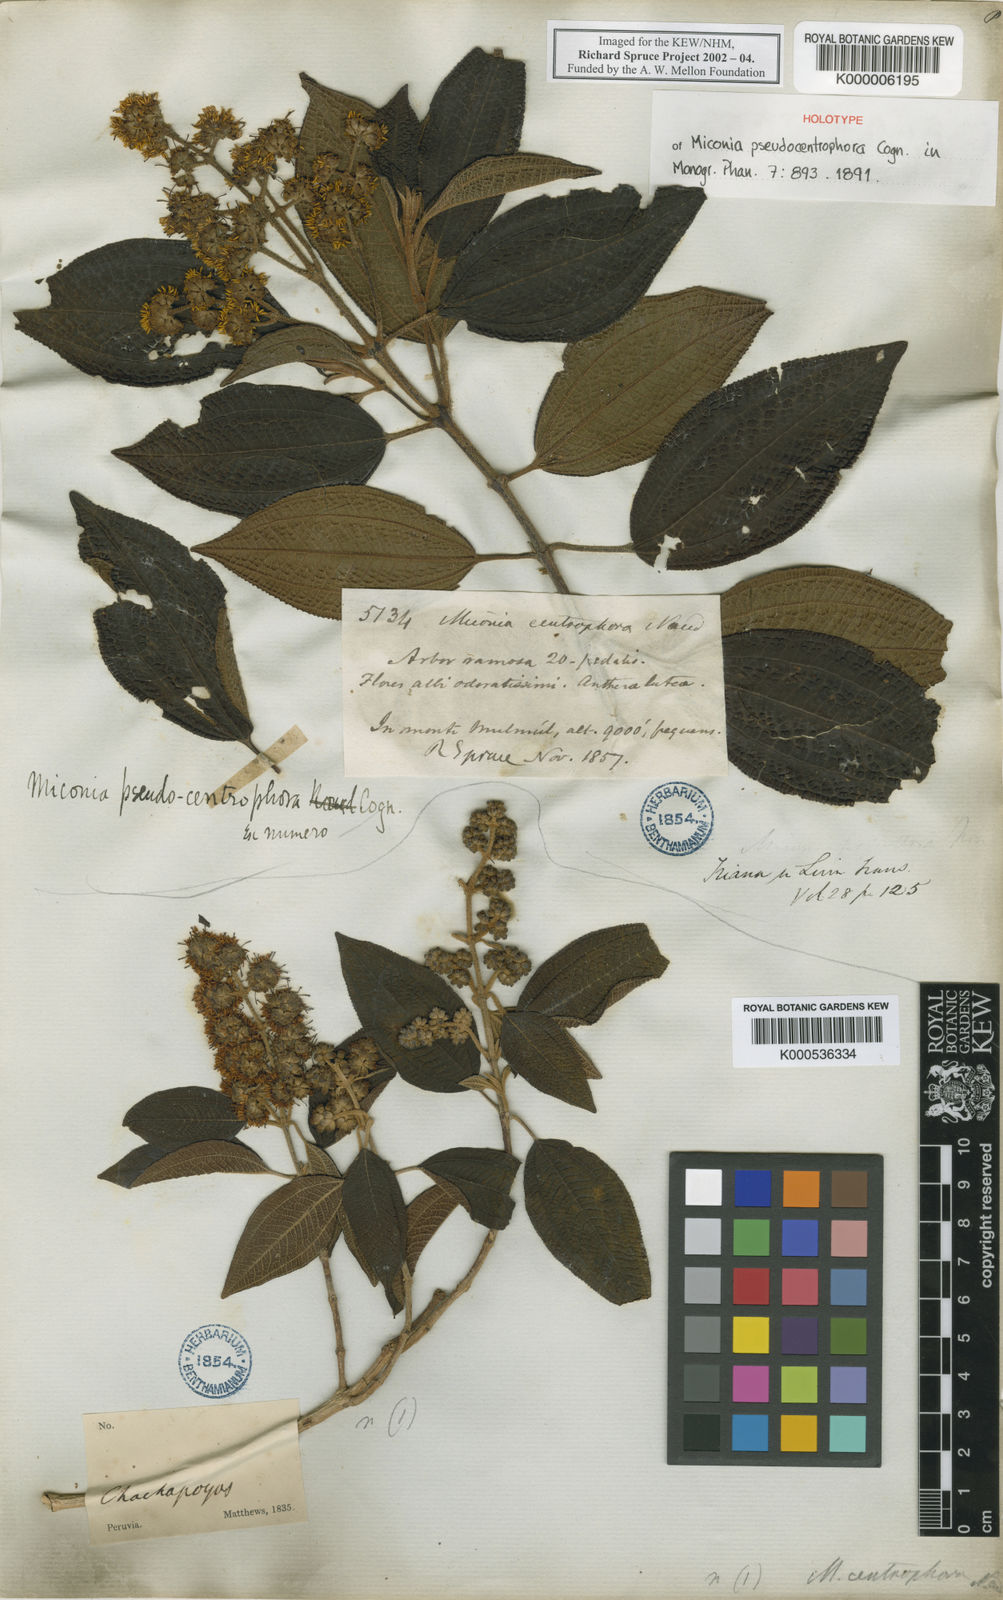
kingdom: Plantae
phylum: Tracheophyta
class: Magnoliopsida
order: Myrtales
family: Melastomataceae
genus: Miconia
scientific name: Miconia pseudocentrophora
